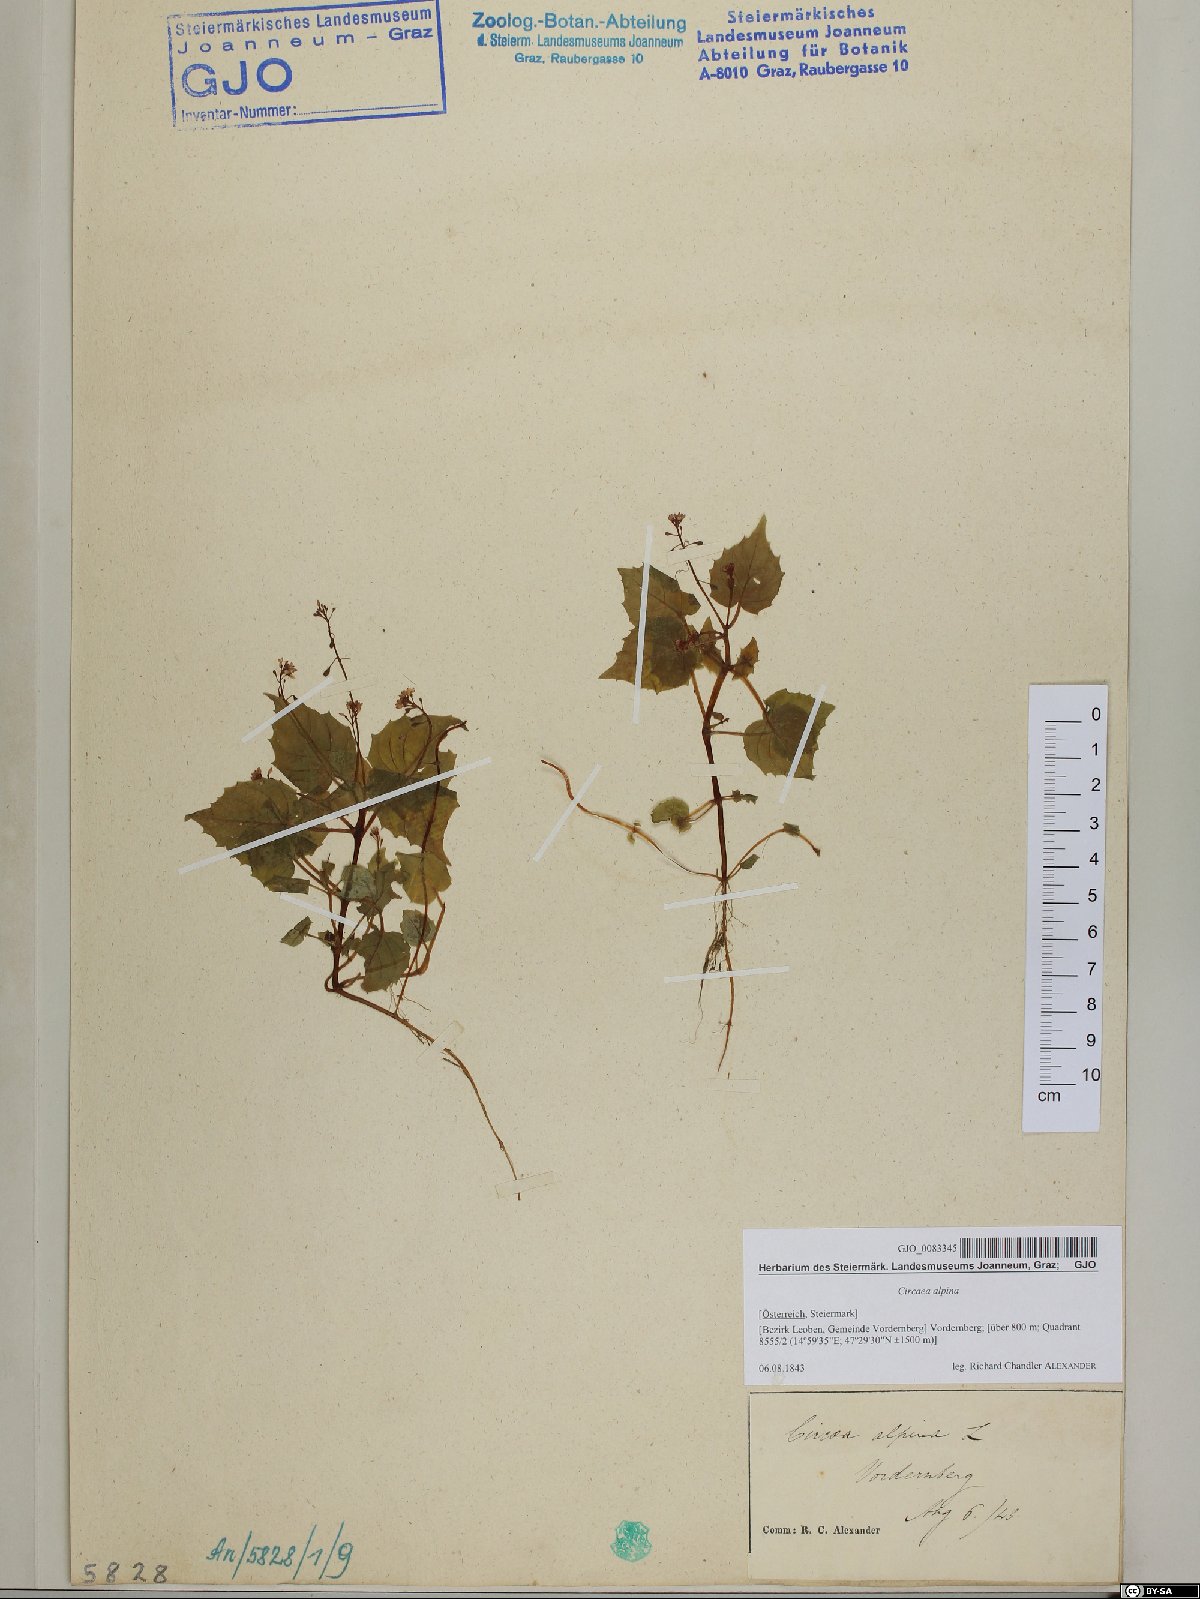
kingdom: Plantae
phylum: Tracheophyta
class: Magnoliopsida
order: Myrtales
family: Onagraceae
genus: Circaea
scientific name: Circaea alpina
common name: Alpine enchanter's-nightshade
